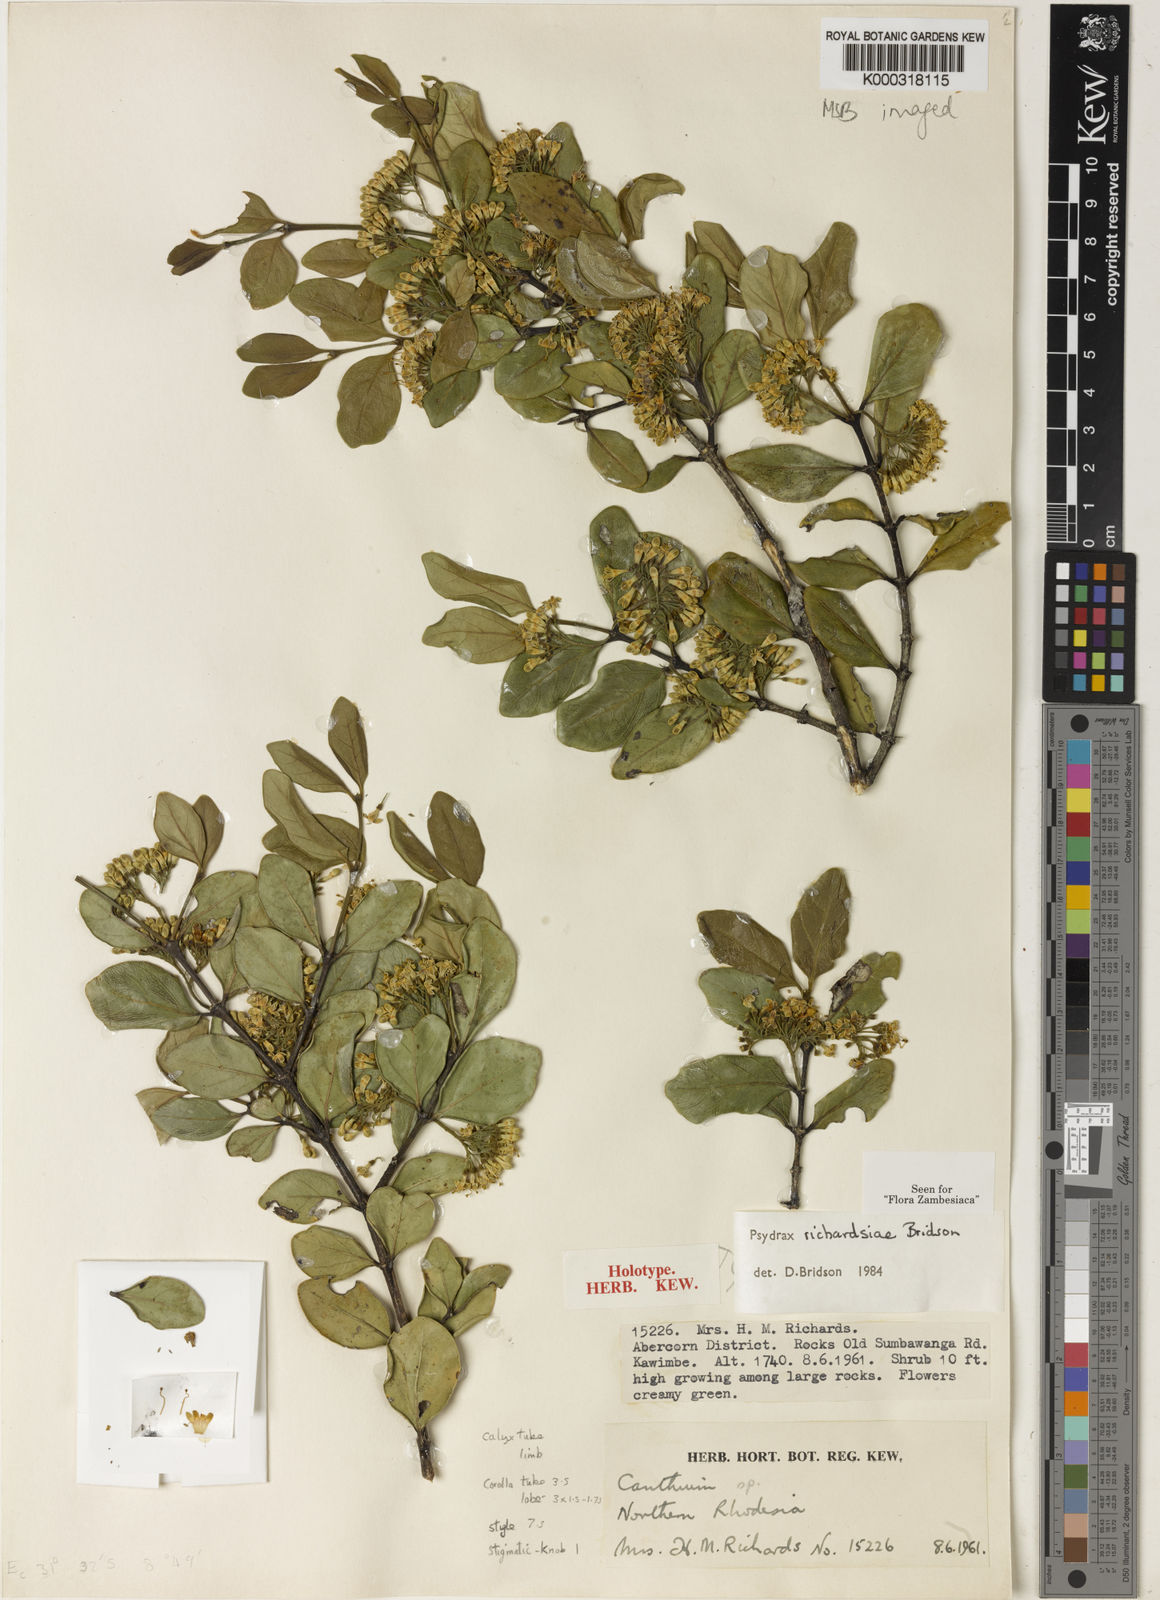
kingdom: Plantae
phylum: Tracheophyta
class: Magnoliopsida
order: Gentianales
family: Rubiaceae
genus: Psydrax
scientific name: Psydrax richardsiae
